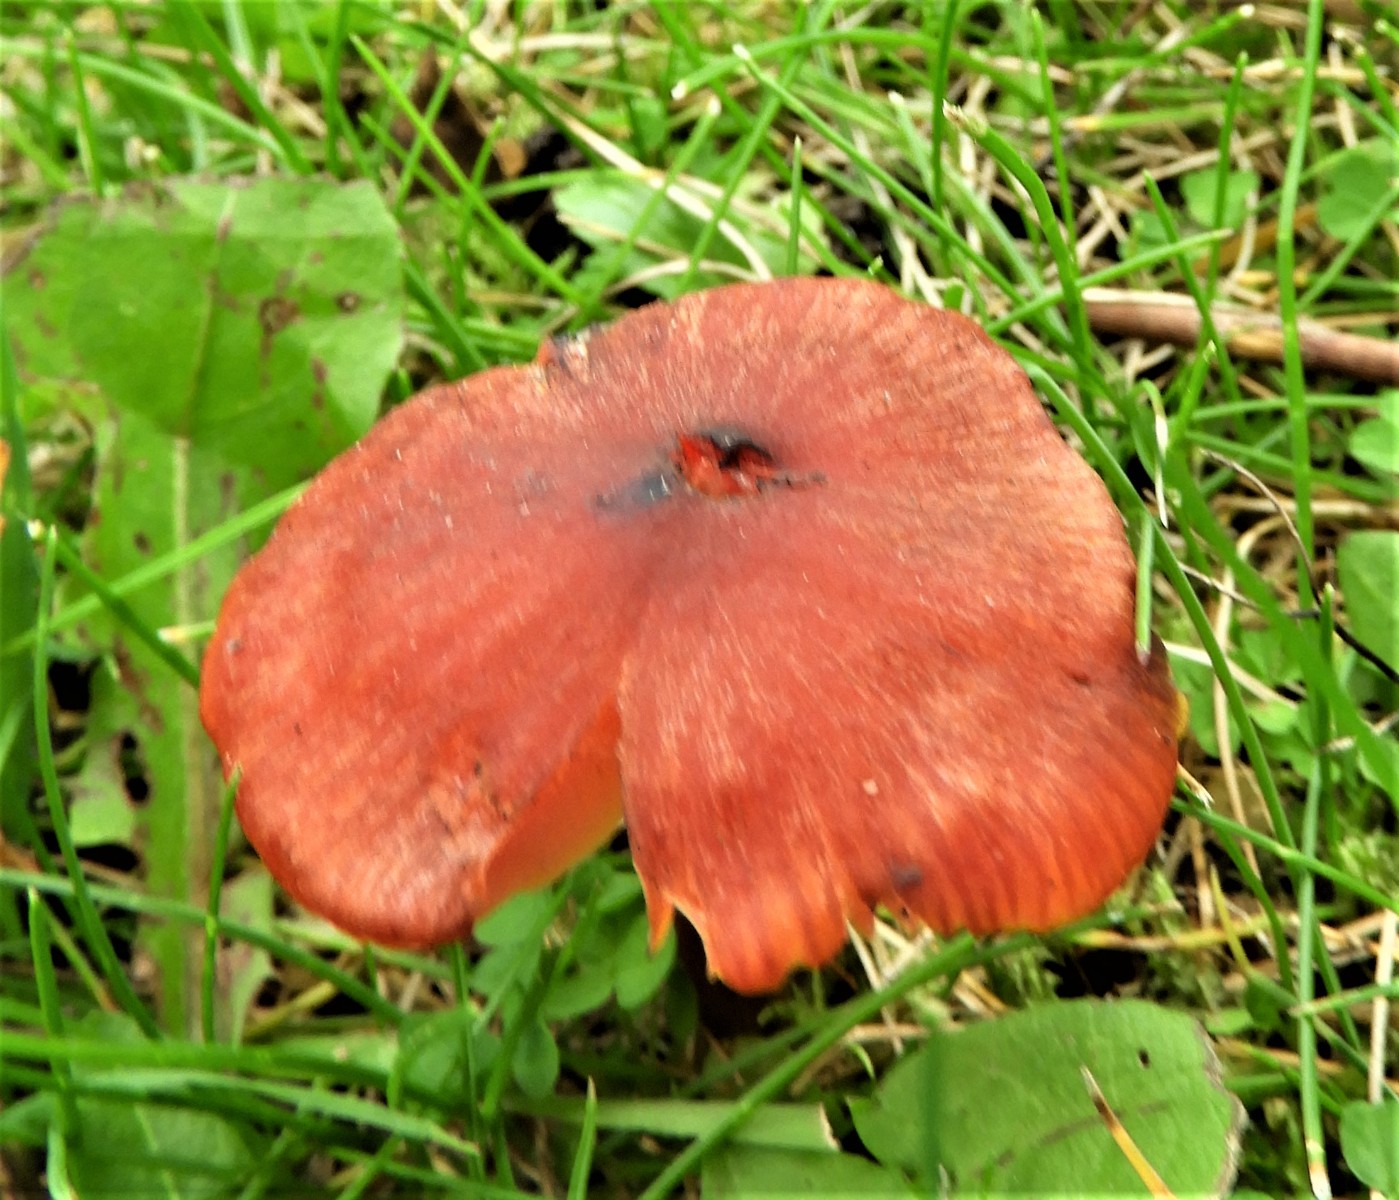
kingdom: Fungi
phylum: Basidiomycota
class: Agaricomycetes
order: Agaricales
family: Hygrophoraceae
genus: Hygrocybe
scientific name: Hygrocybe conica
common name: kegle-vokshat
